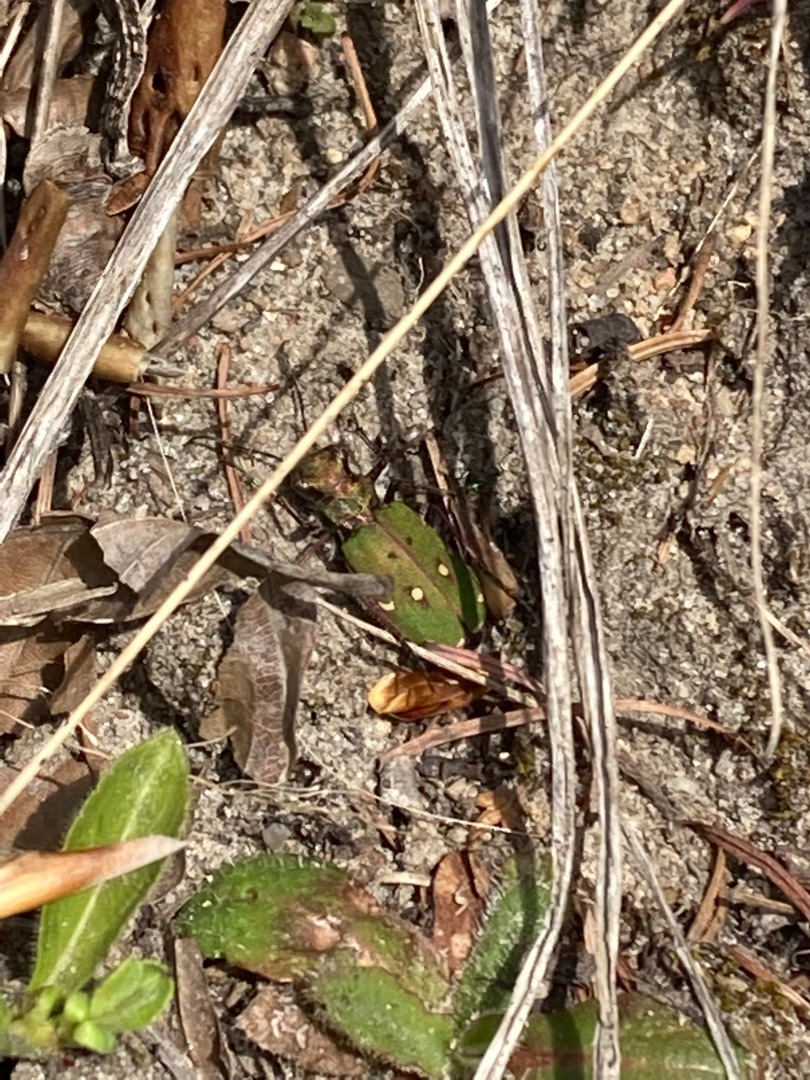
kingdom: Animalia
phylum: Arthropoda
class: Insecta
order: Coleoptera
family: Carabidae
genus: Cicindela
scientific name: Cicindela campestris
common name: Grøn sandspringer
